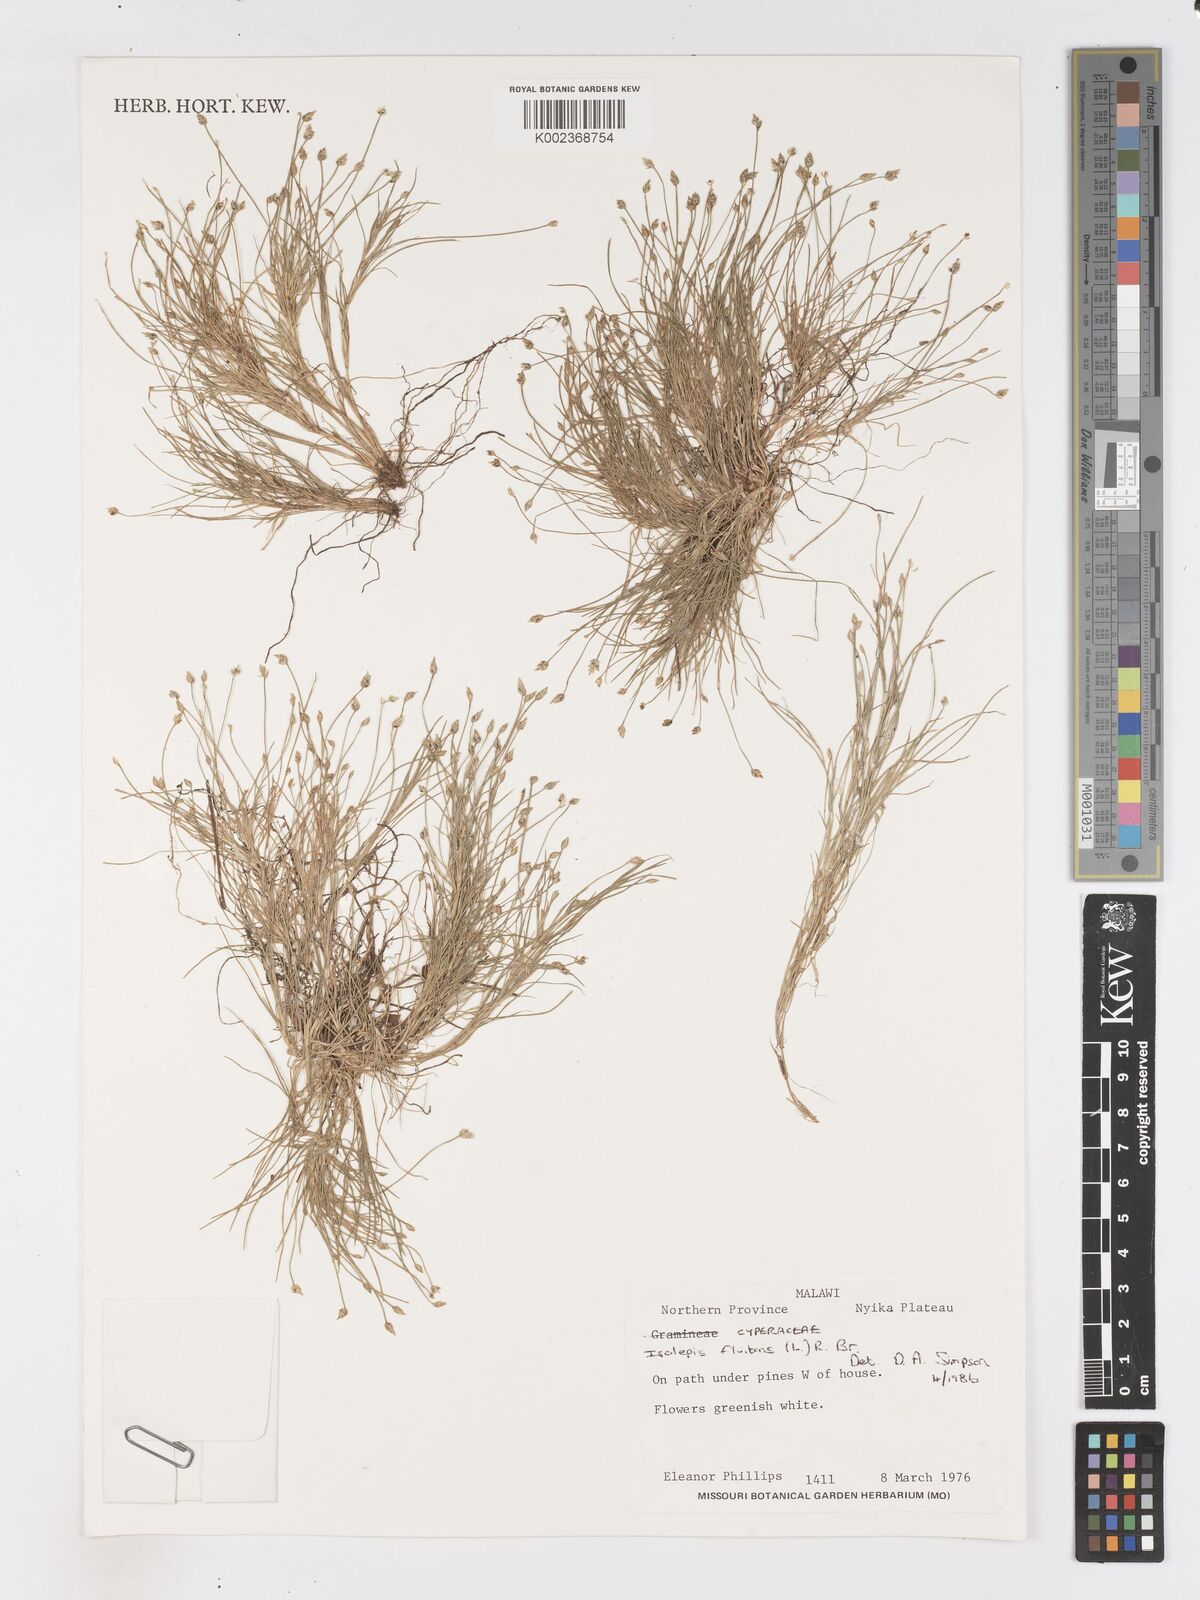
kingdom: Plantae
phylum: Tracheophyta
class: Liliopsida
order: Poales
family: Cyperaceae
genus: Isolepis
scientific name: Isolepis fluitans
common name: Floating club-rush
